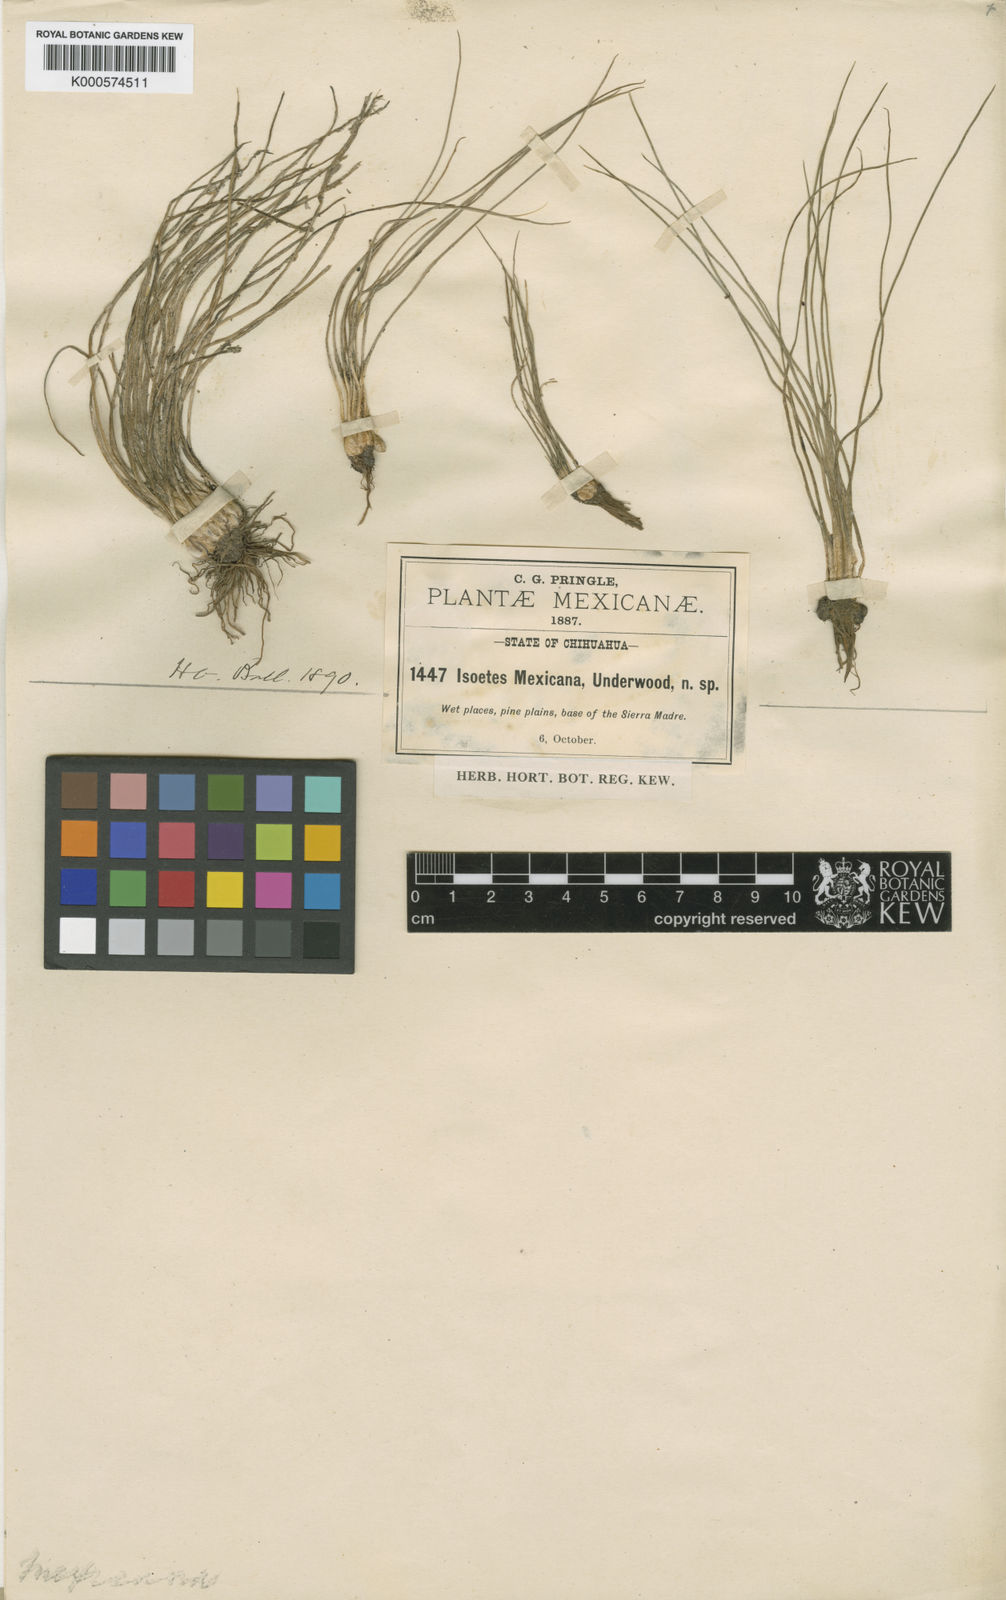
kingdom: Plantae
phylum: Tracheophyta
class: Lycopodiopsida
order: Isoetales
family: Isoetaceae
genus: Isoetes
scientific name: Isoetes mexicana
